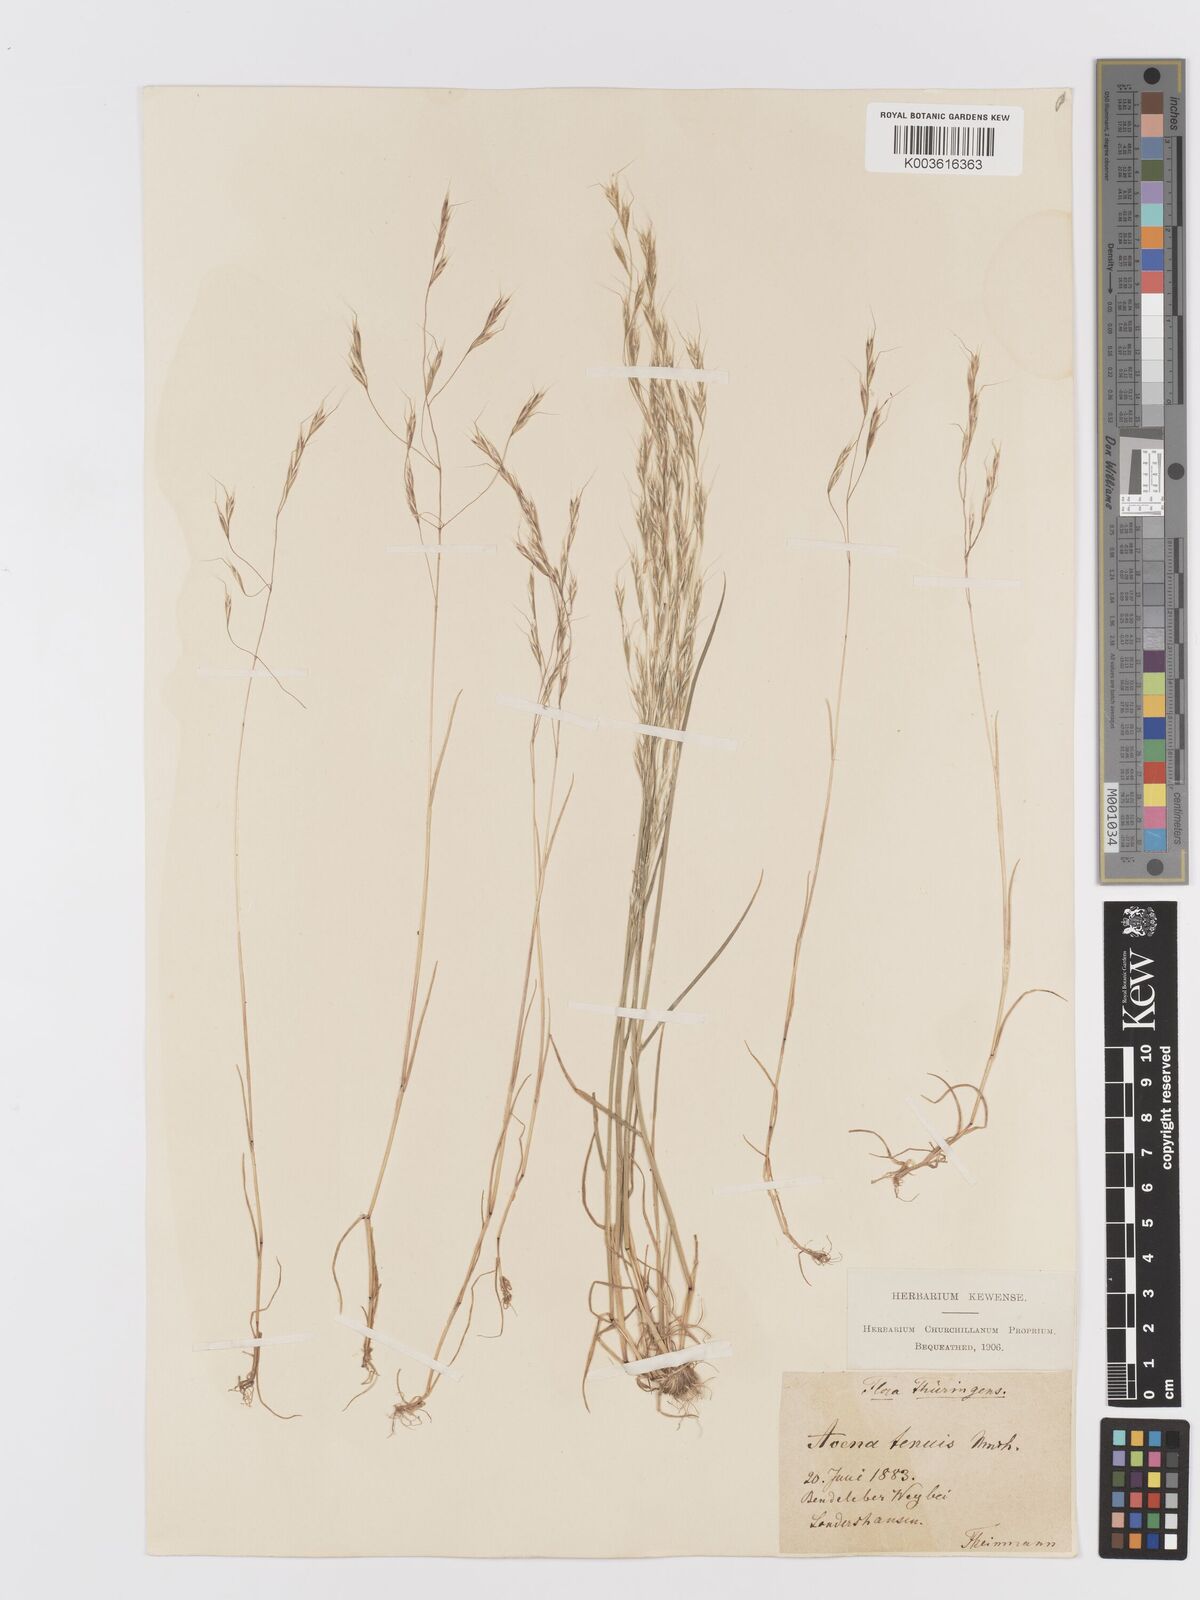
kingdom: Plantae
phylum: Tracheophyta
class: Liliopsida
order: Poales
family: Poaceae
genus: Ventenata
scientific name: Ventenata dubia
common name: North africa grass
